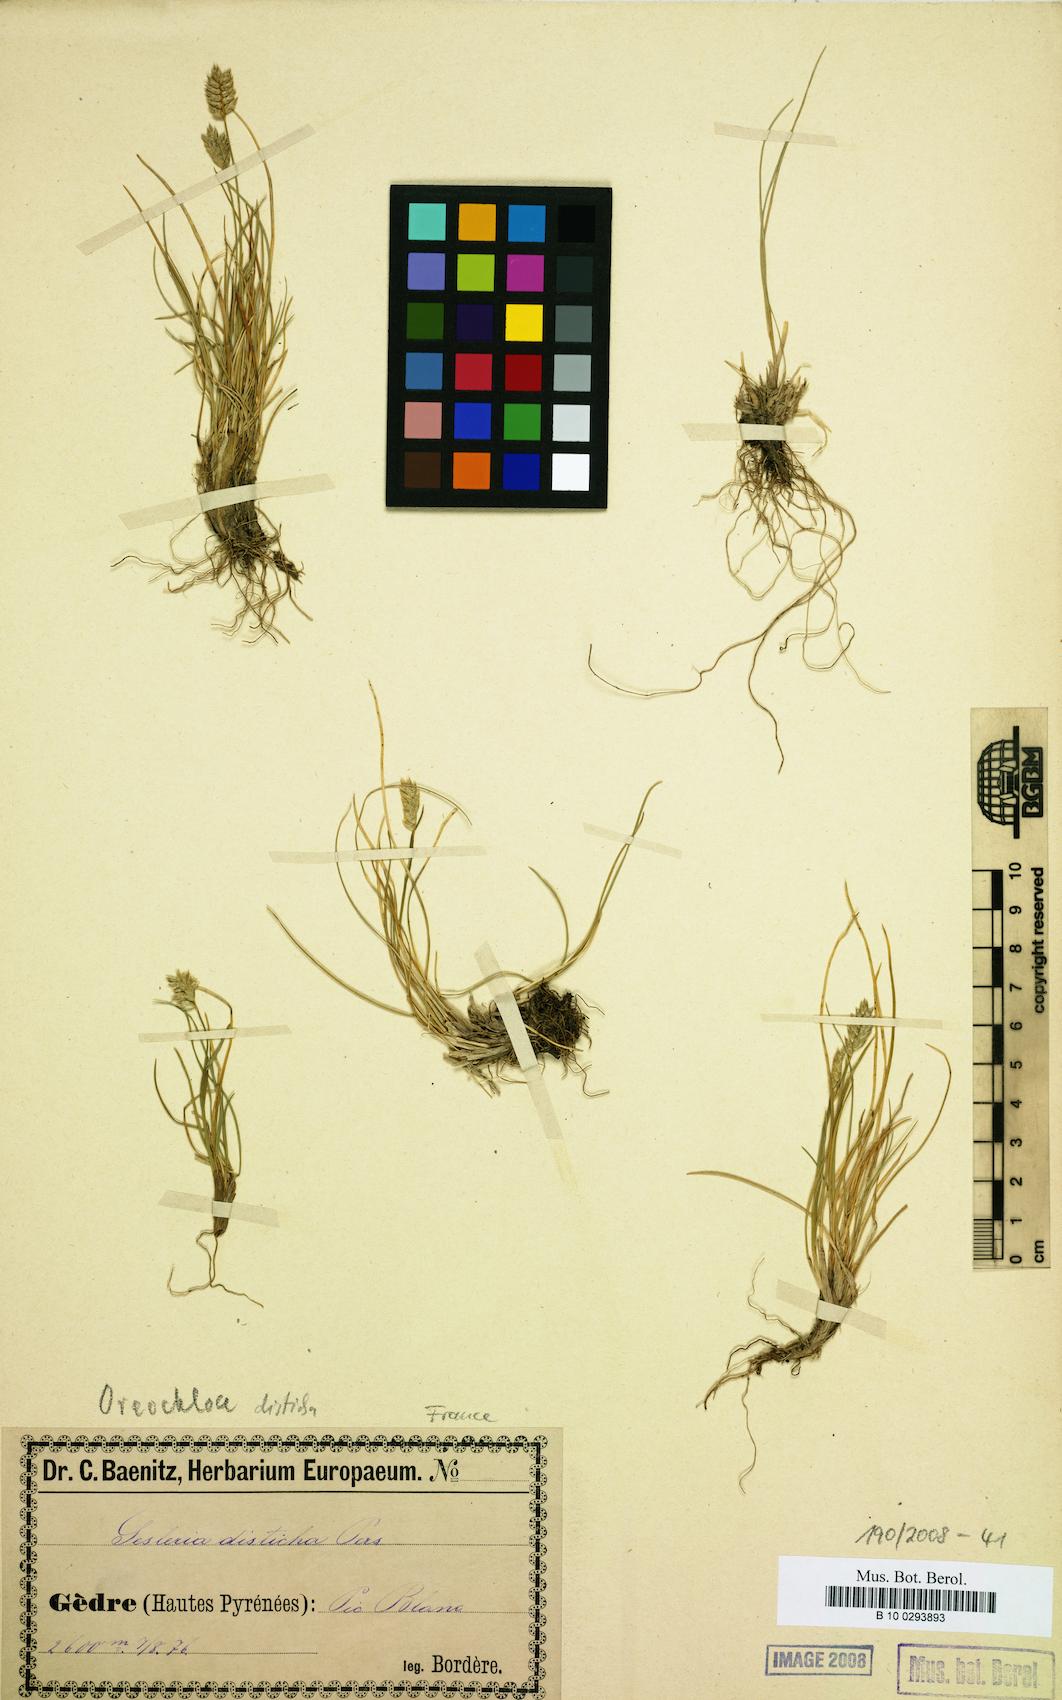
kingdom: Plantae
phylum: Tracheophyta
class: Liliopsida
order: Poales
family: Poaceae
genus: Oreochloa
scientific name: Oreochloa disticha
